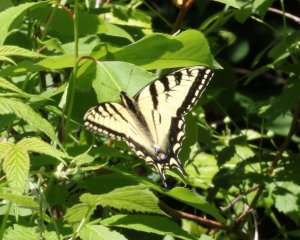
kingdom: Animalia
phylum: Arthropoda
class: Insecta
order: Lepidoptera
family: Papilionidae
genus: Pterourus
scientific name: Pterourus canadensis
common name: Canadian Tiger Swallowtail
